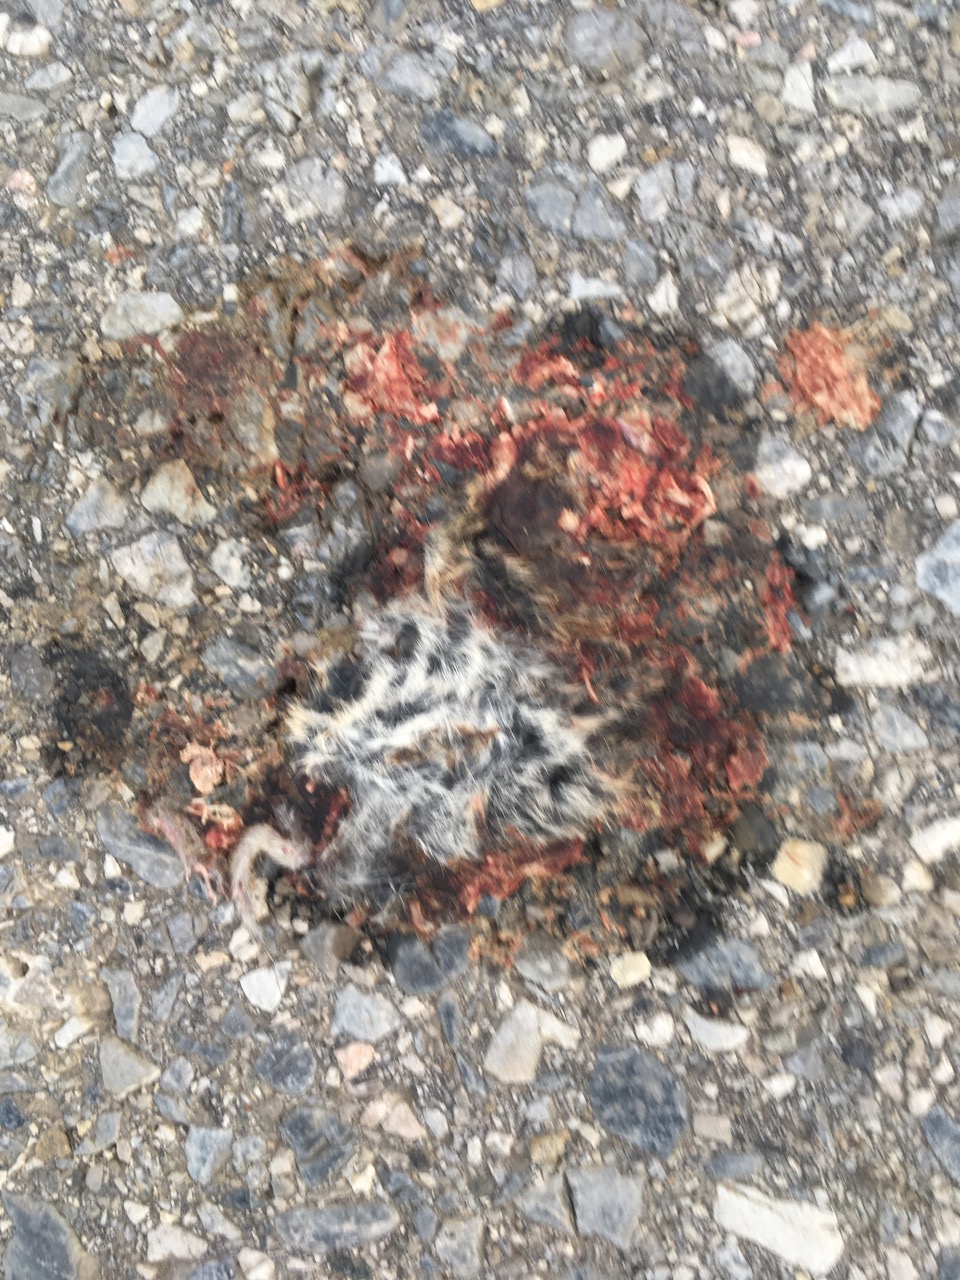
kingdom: Animalia
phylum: Chordata
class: Mammalia
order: Rodentia
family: Cricetidae
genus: Microtus
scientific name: Microtus
